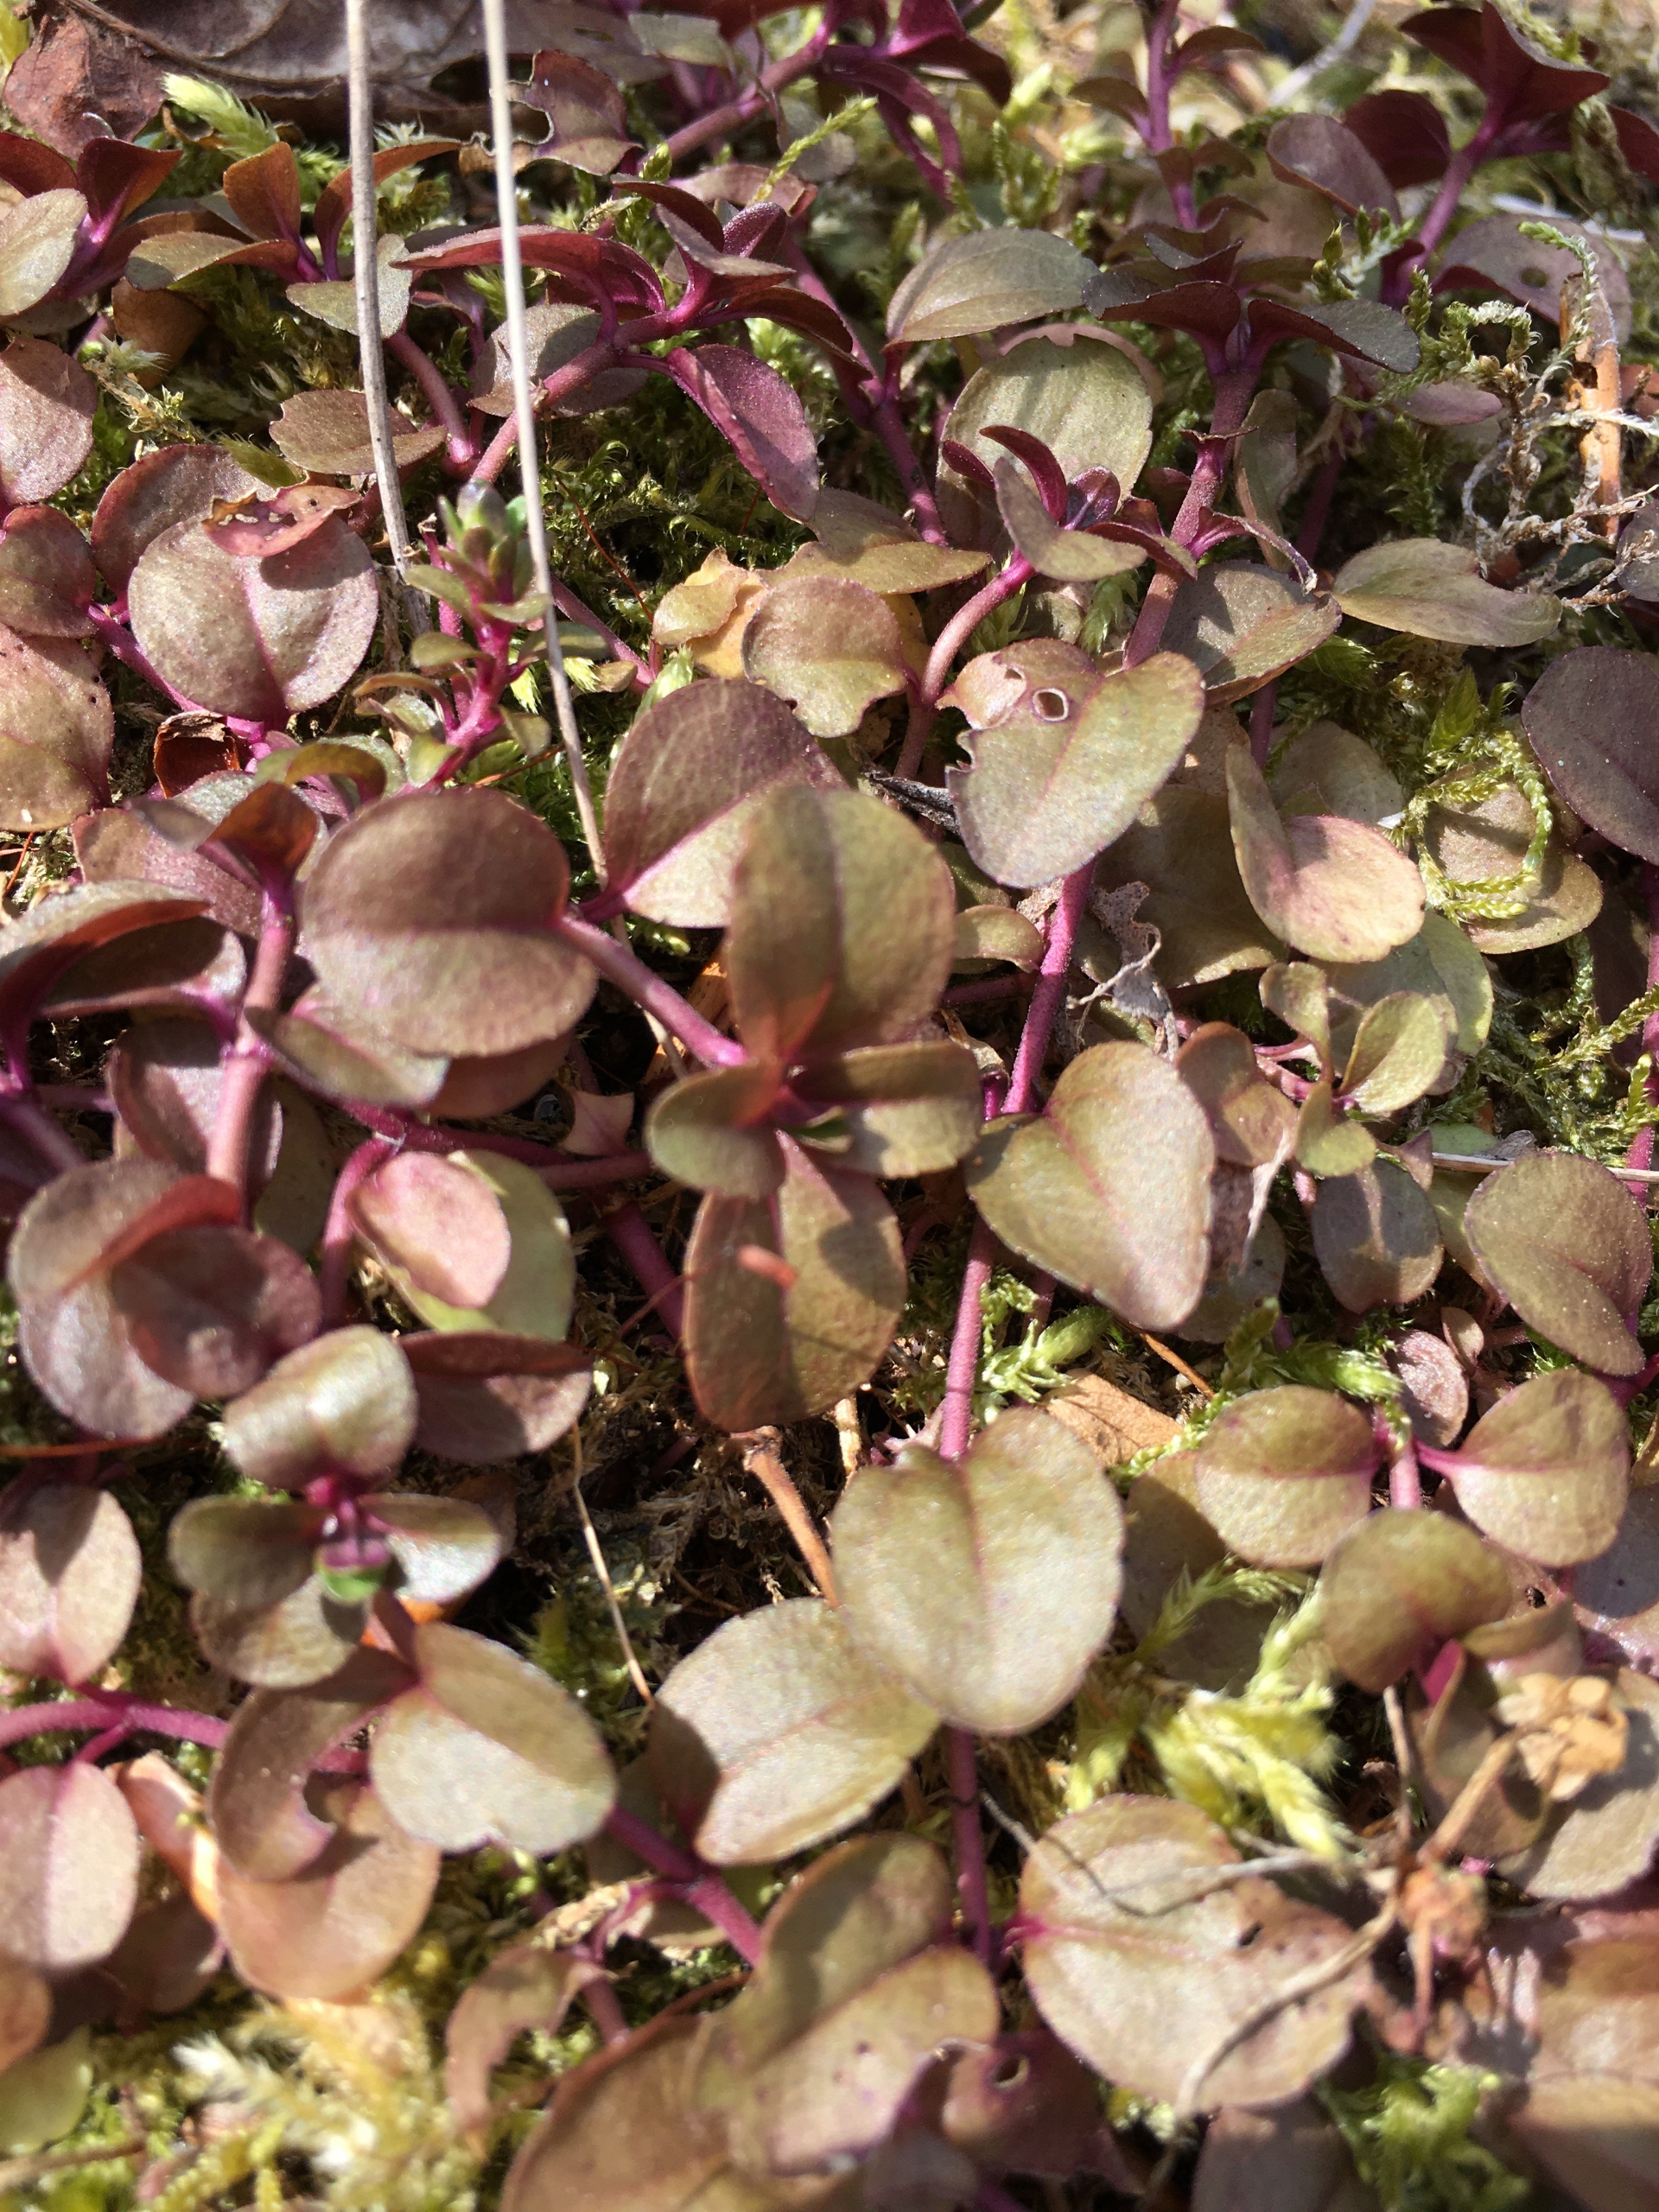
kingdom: Plantae
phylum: Tracheophyta
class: Magnoliopsida
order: Lamiales
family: Plantaginaceae
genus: Veronica
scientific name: Veronica serpyllifolia
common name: Glat ærenpris
